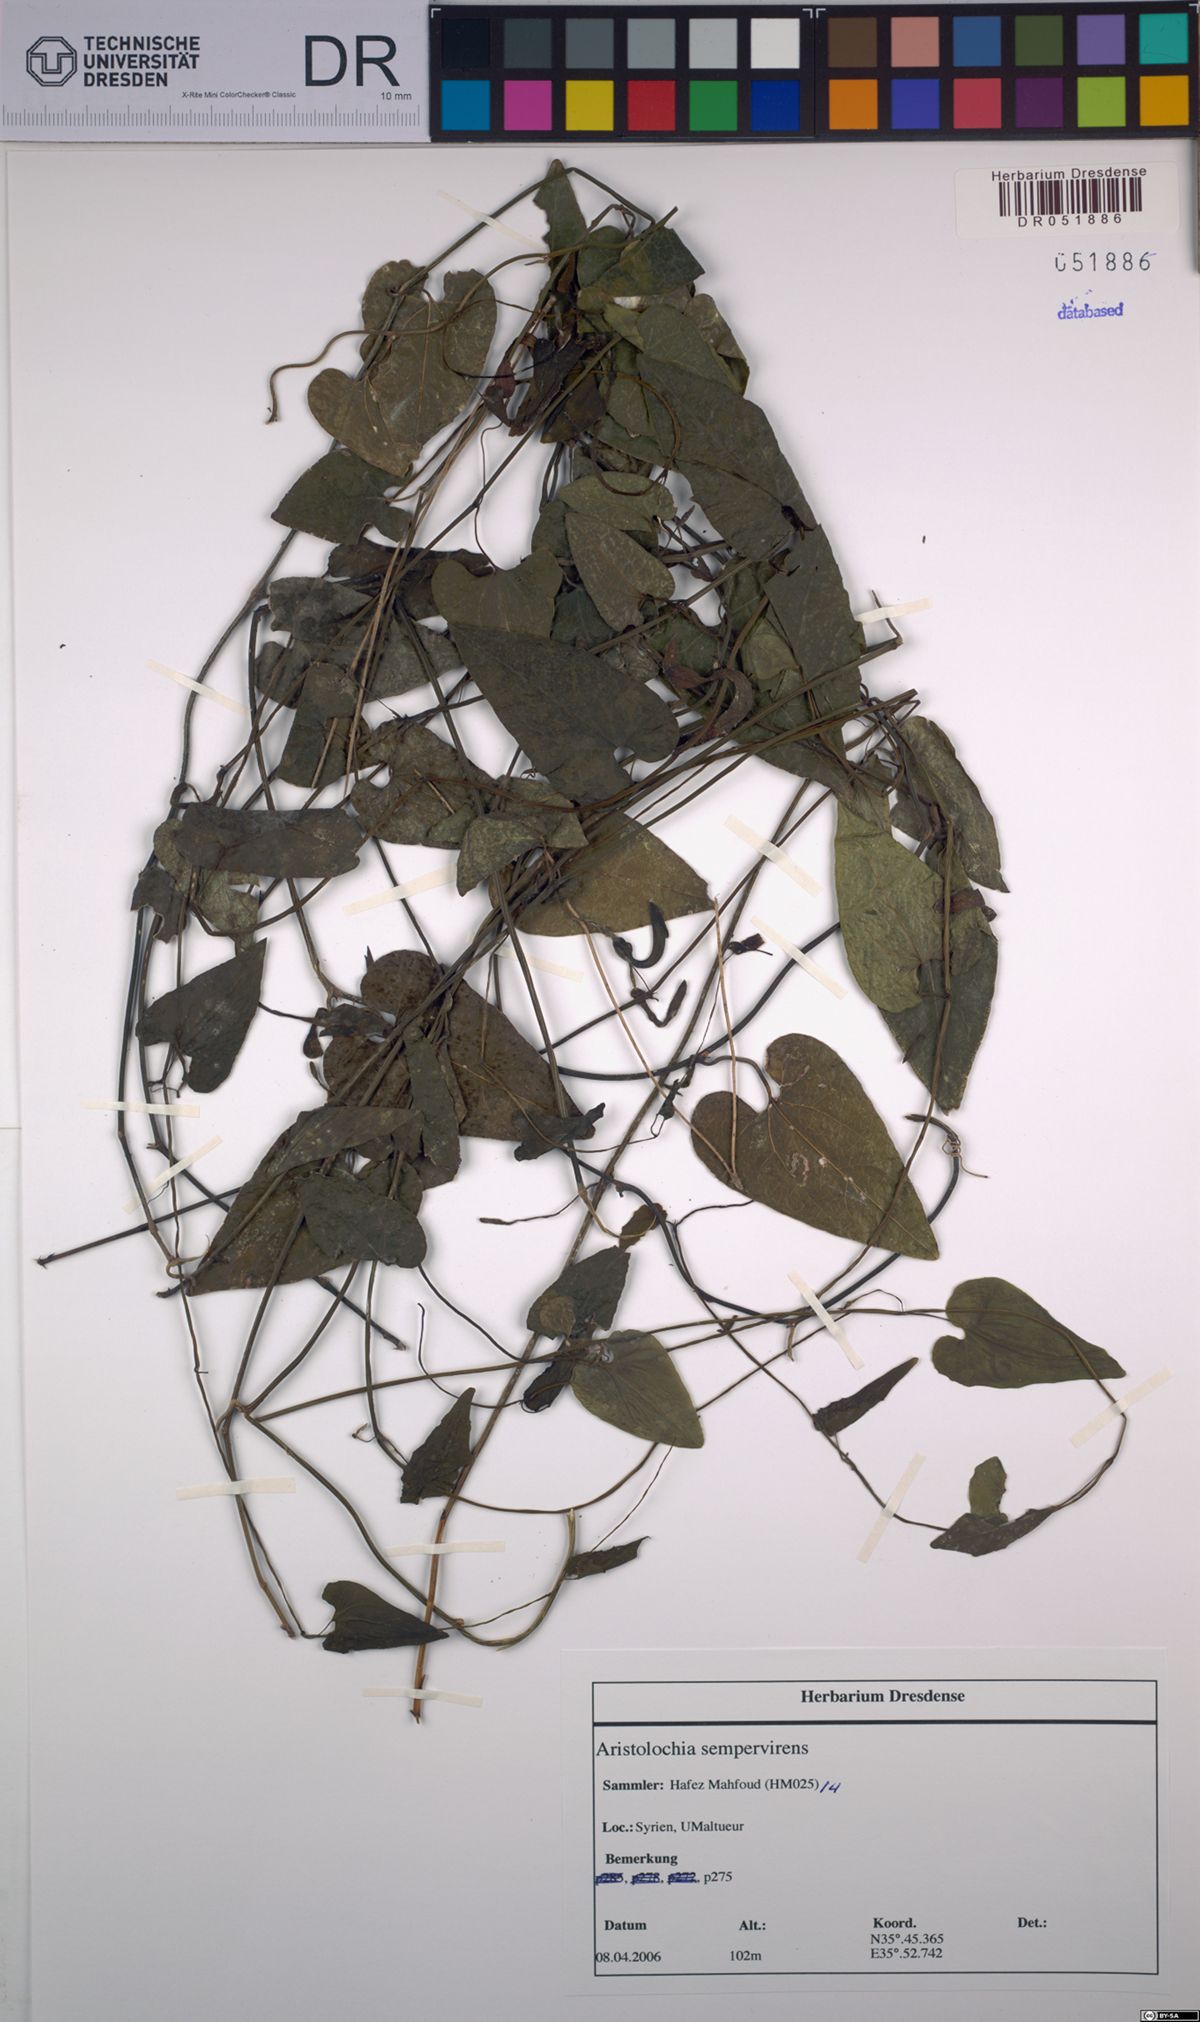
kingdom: Plantae
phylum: Tracheophyta
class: Magnoliopsida
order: Piperales
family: Aristolochiaceae
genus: Aristolochia
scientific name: Aristolochia sempervirens
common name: Long birthwort
